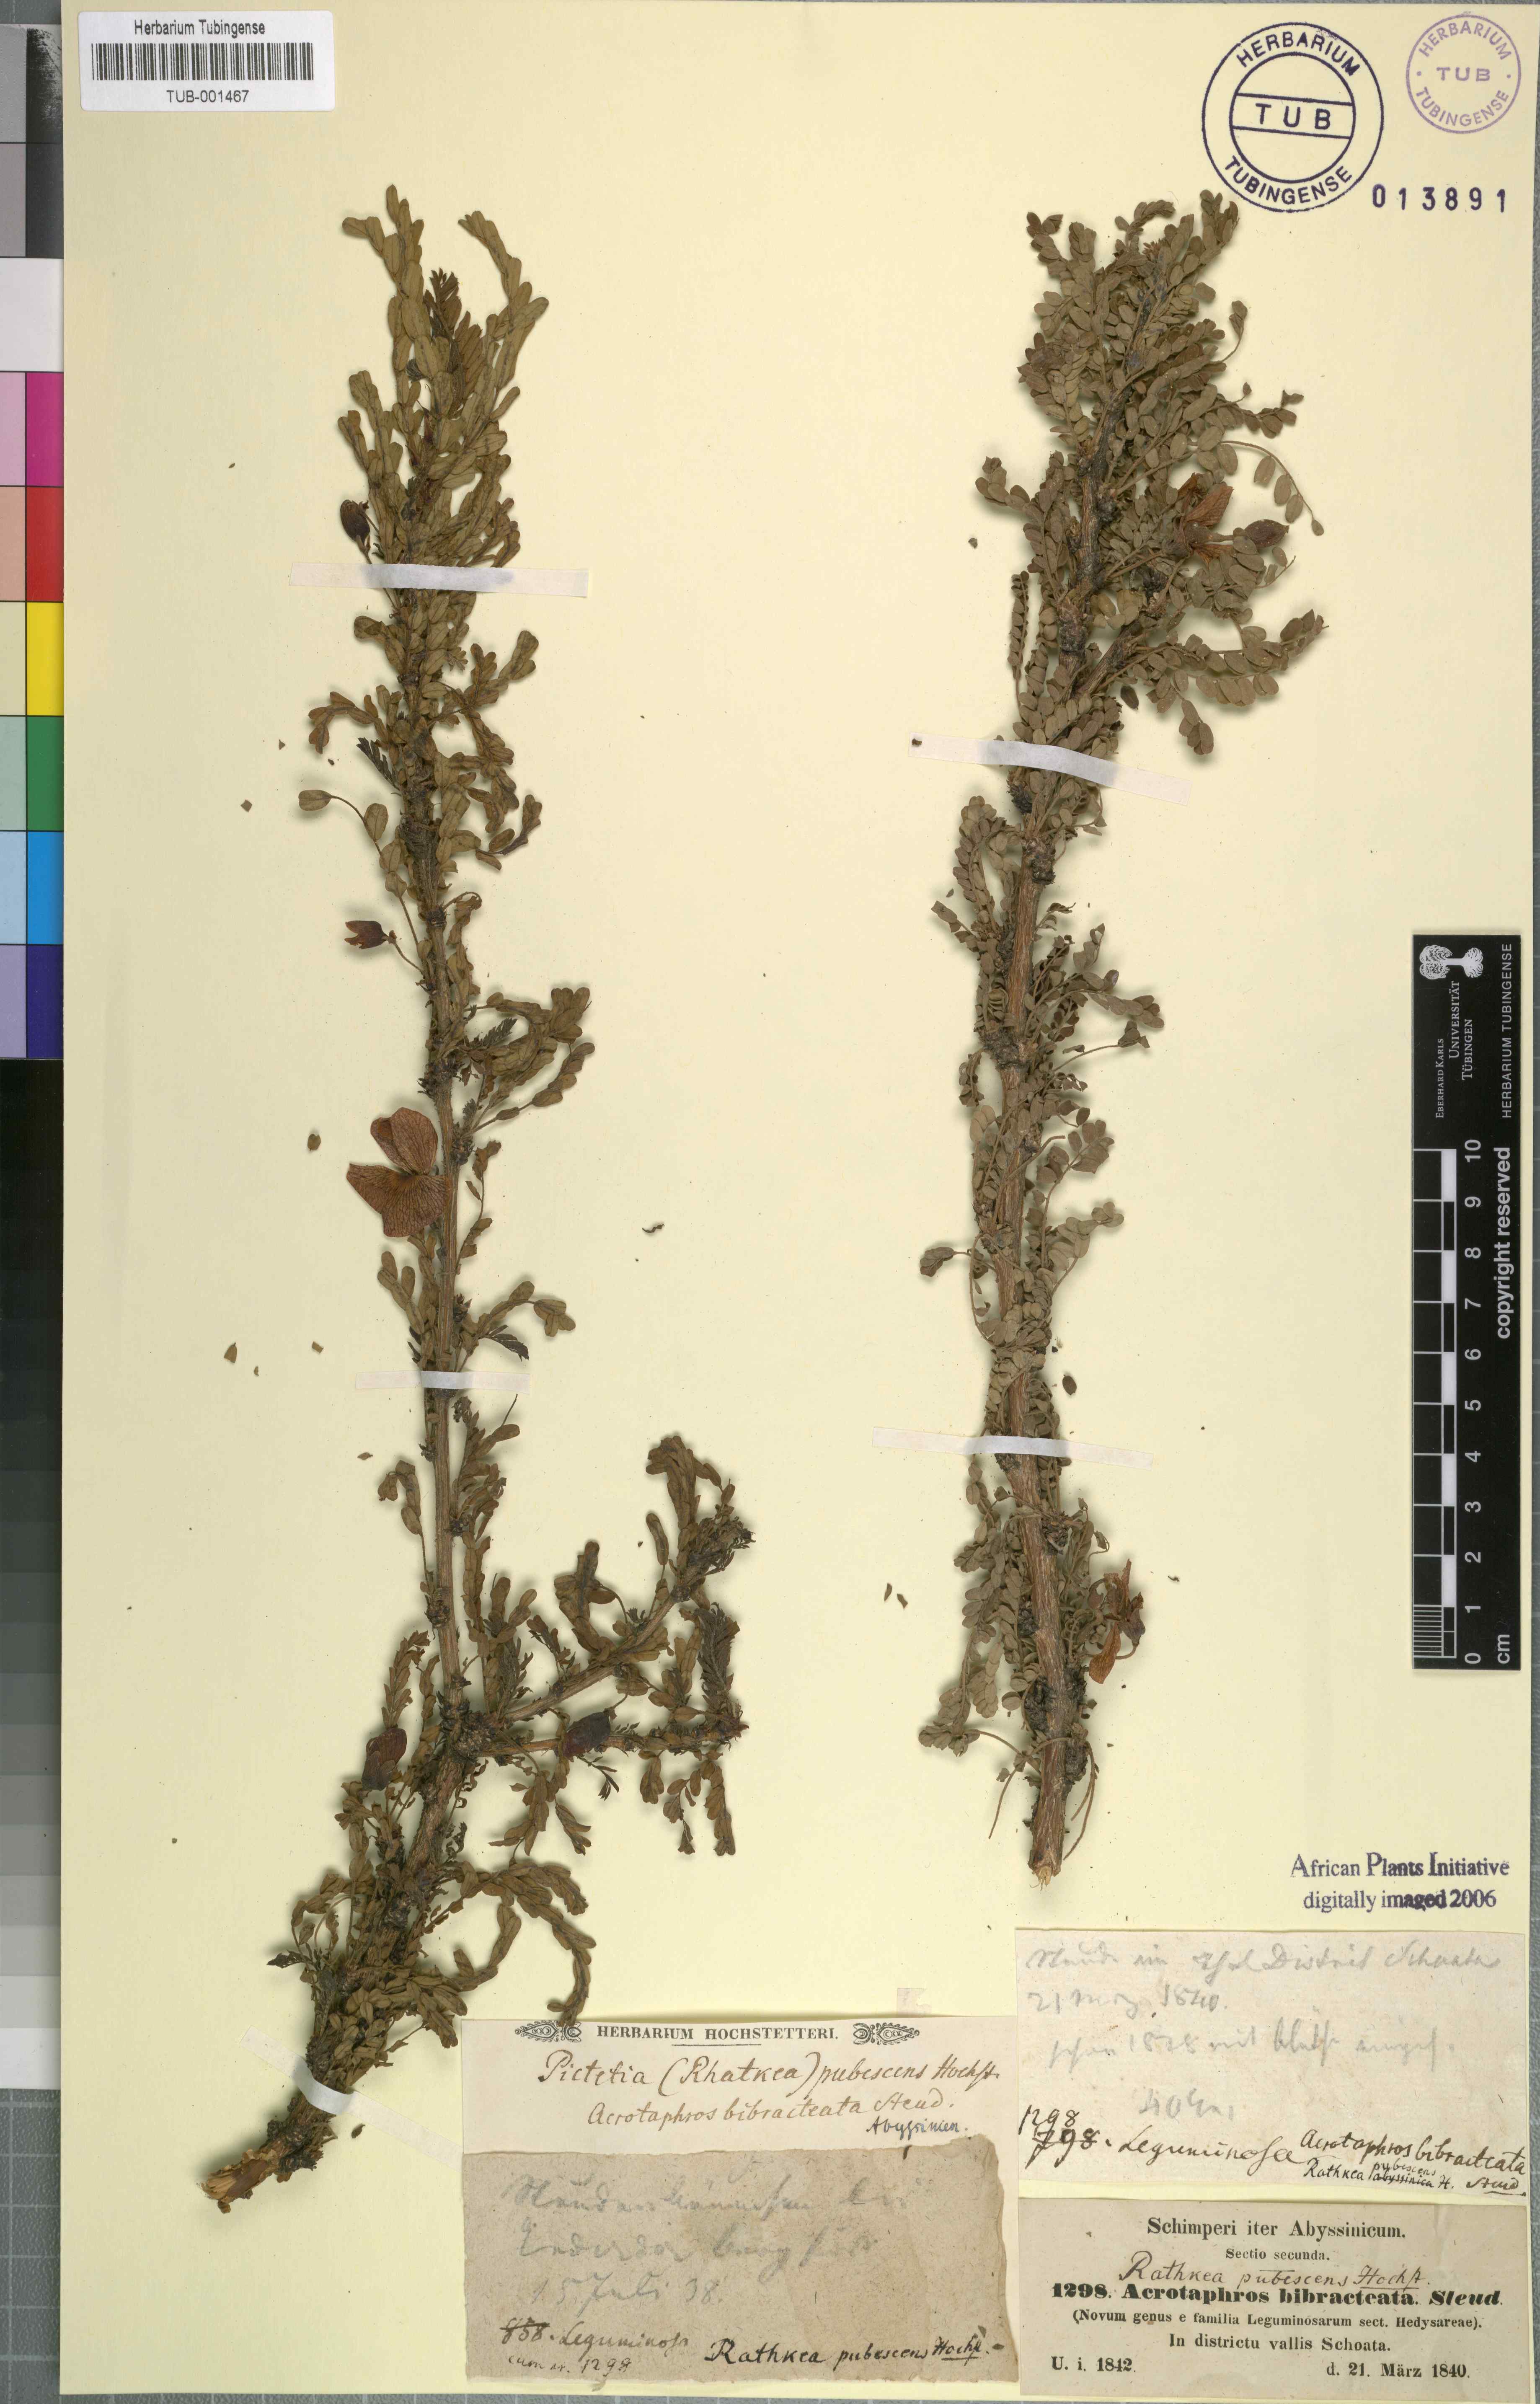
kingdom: Plantae
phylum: Tracheophyta
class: Magnoliopsida
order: Fabales
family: Fabaceae
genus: Ormocarpum
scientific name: Ormocarpum
